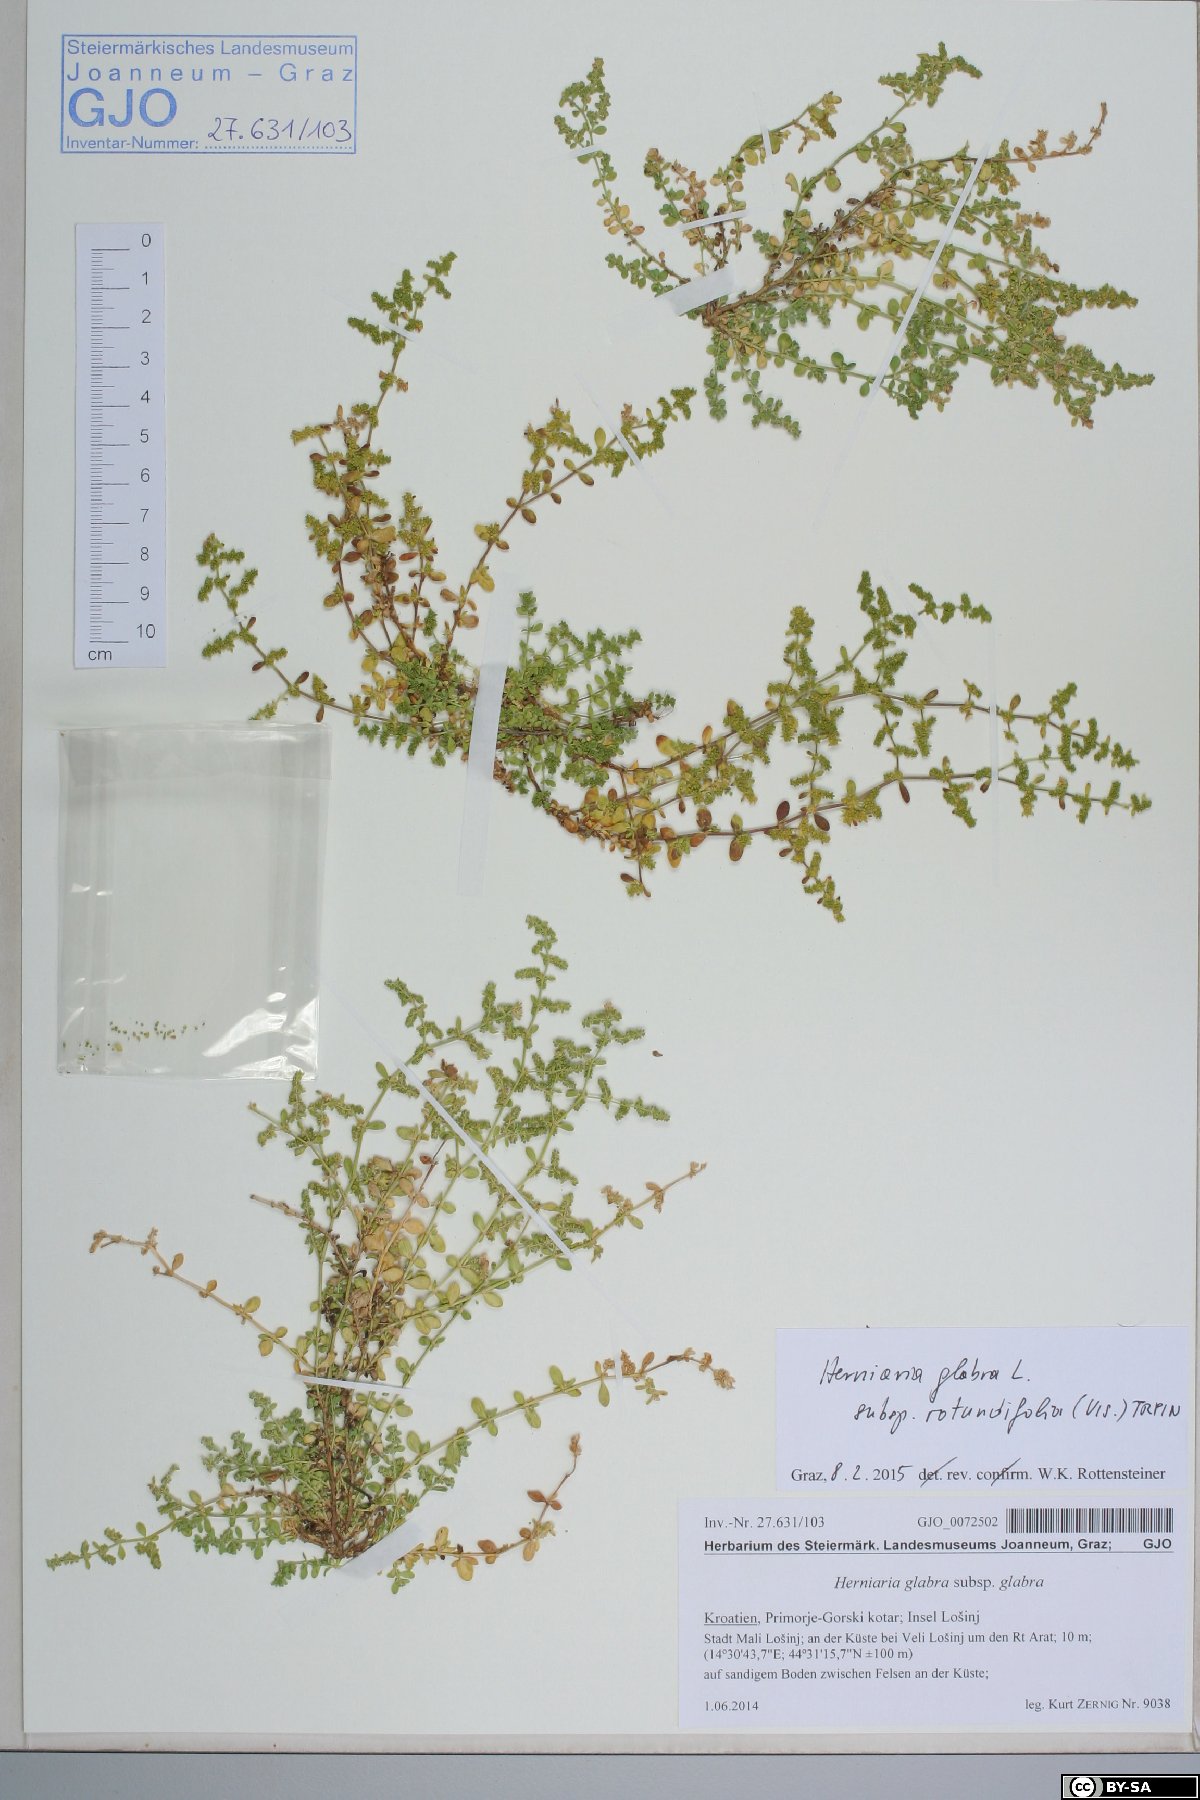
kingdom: Plantae
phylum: Tracheophyta
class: Magnoliopsida
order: Caryophyllales
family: Caryophyllaceae
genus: Herniaria
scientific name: Herniaria glabra
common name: Smooth rupturewort
